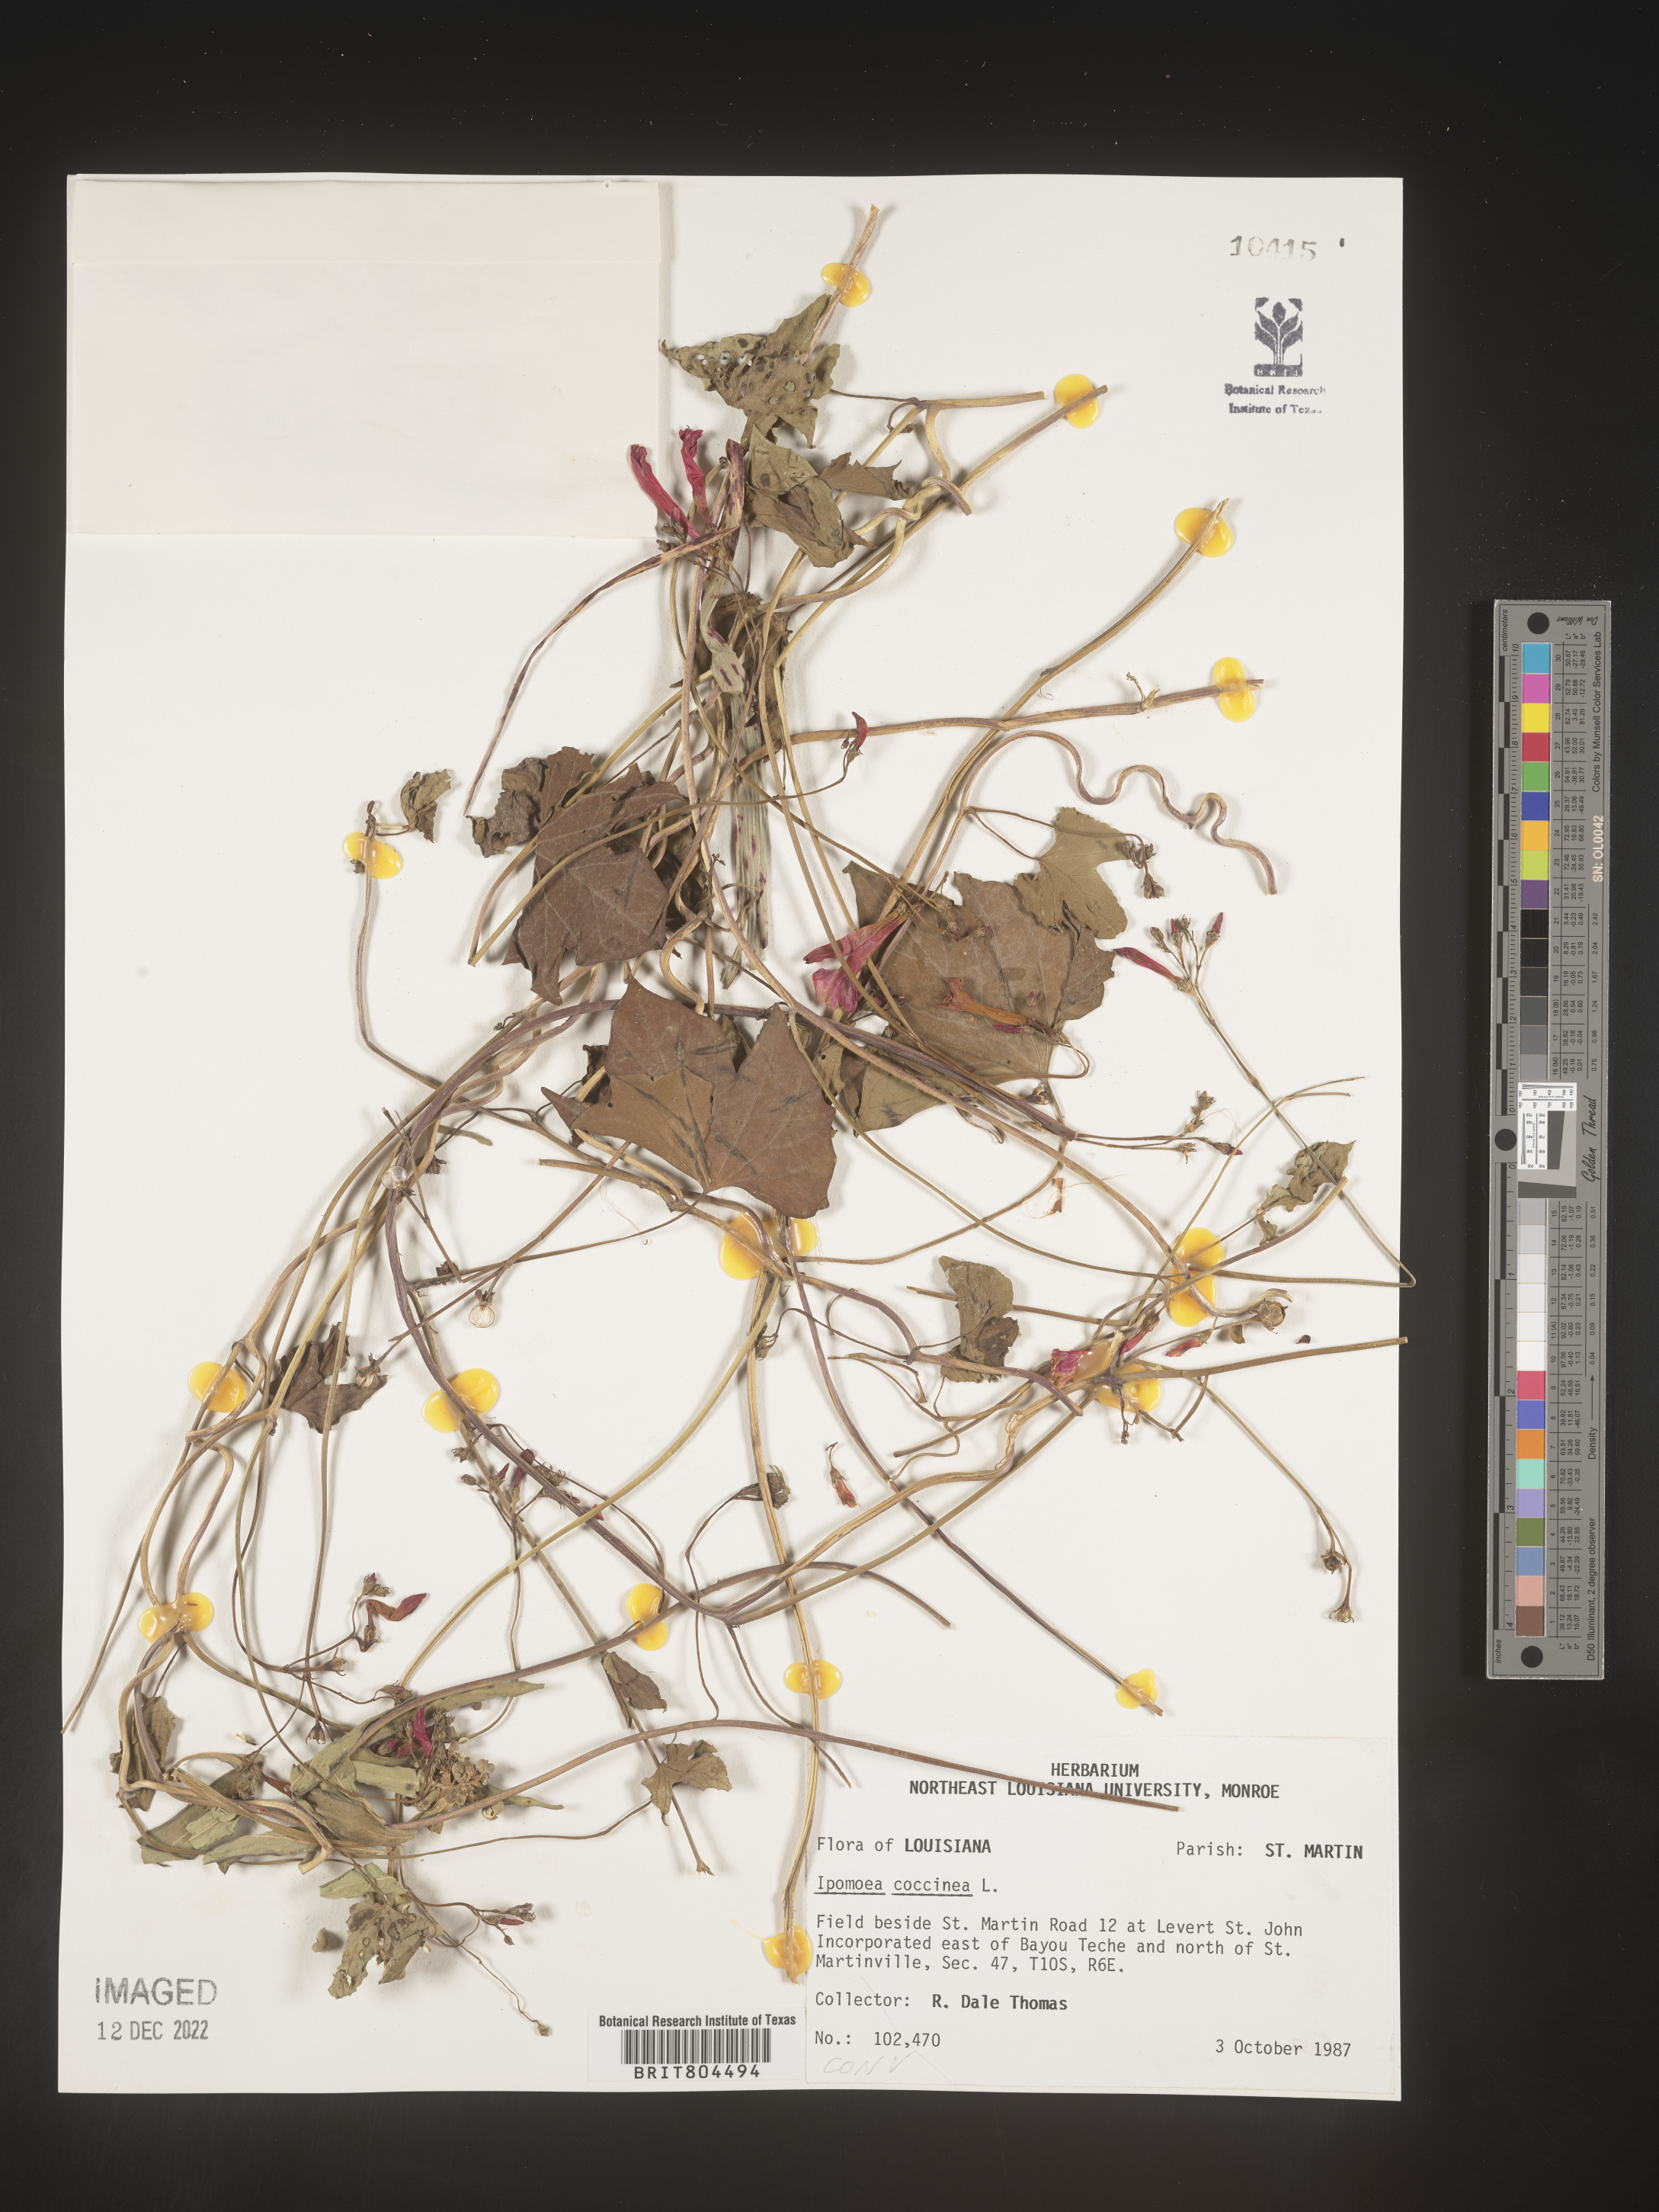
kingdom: Plantae
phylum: Tracheophyta
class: Magnoliopsida
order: Solanales
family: Convolvulaceae
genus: Ipomoea
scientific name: Ipomoea coccinea
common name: Red morning-glory
